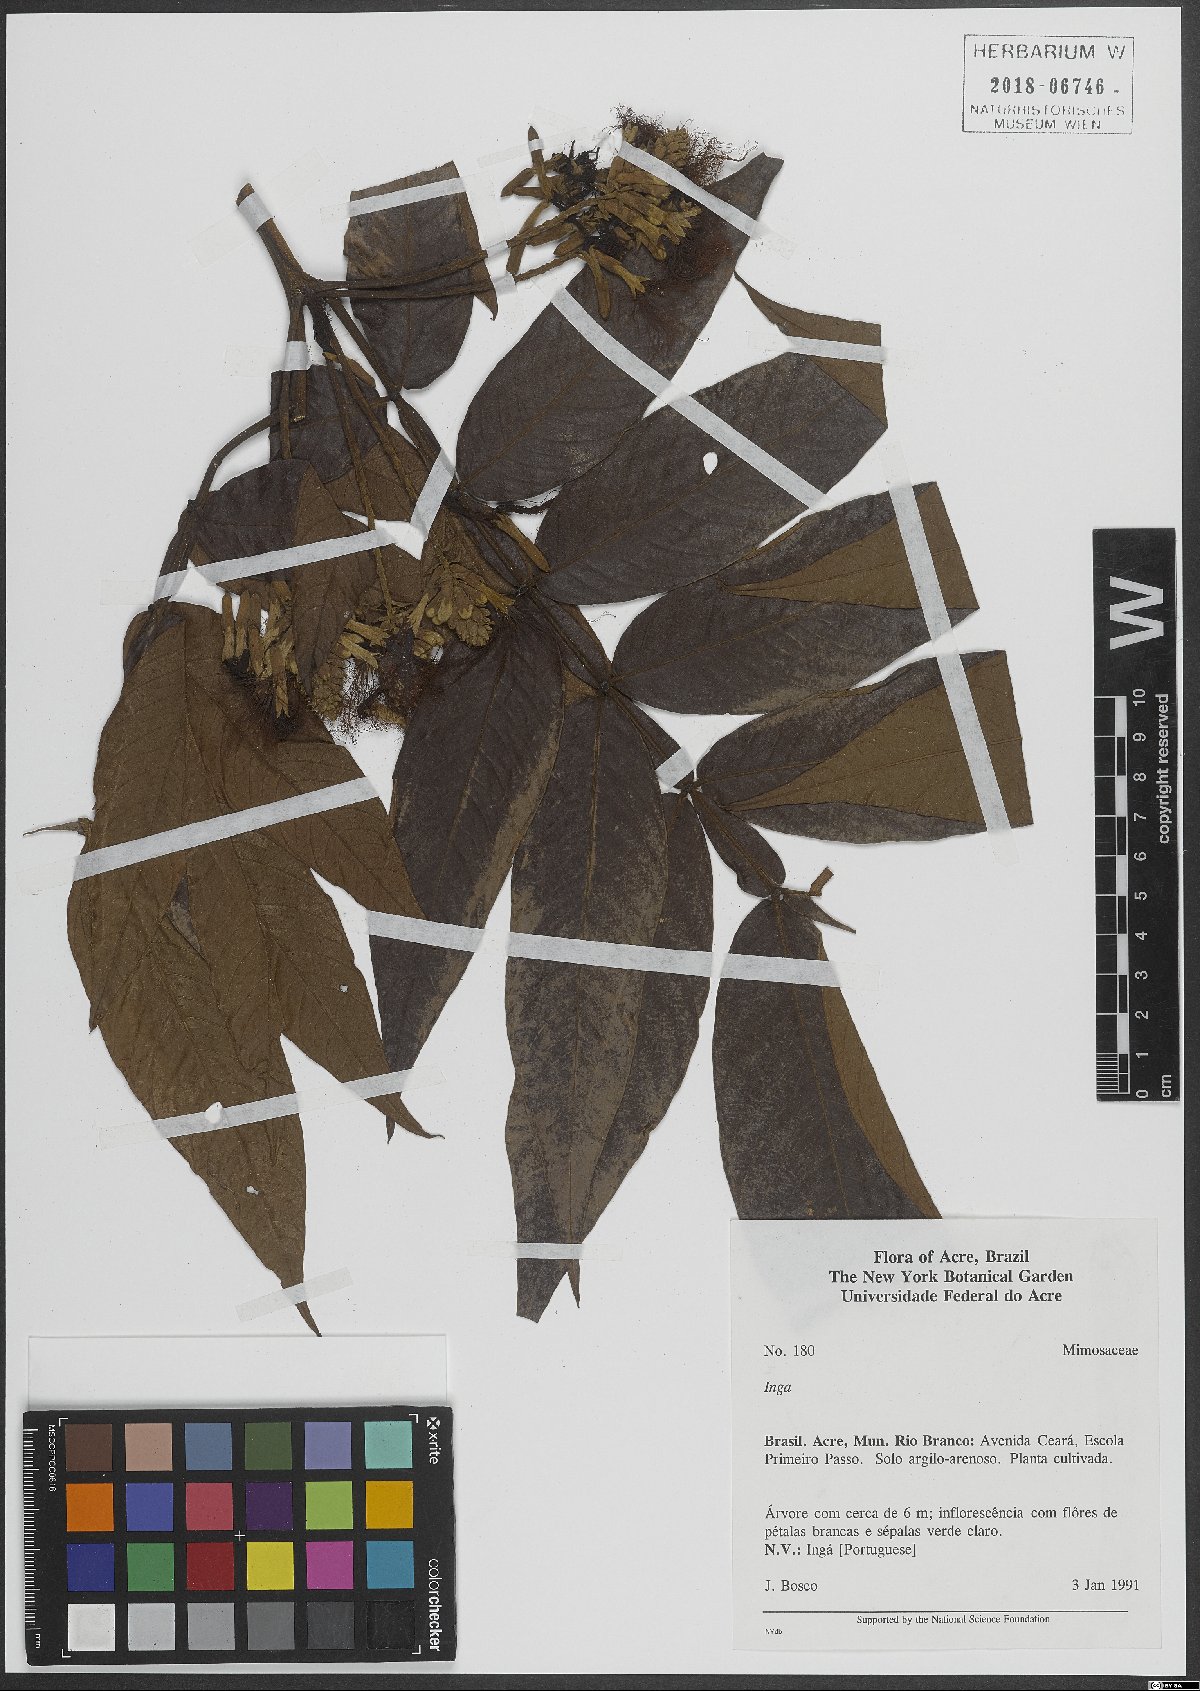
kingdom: Plantae
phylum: Tracheophyta
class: Magnoliopsida
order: Fabales
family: Fabaceae
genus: Inga
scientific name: Inga
